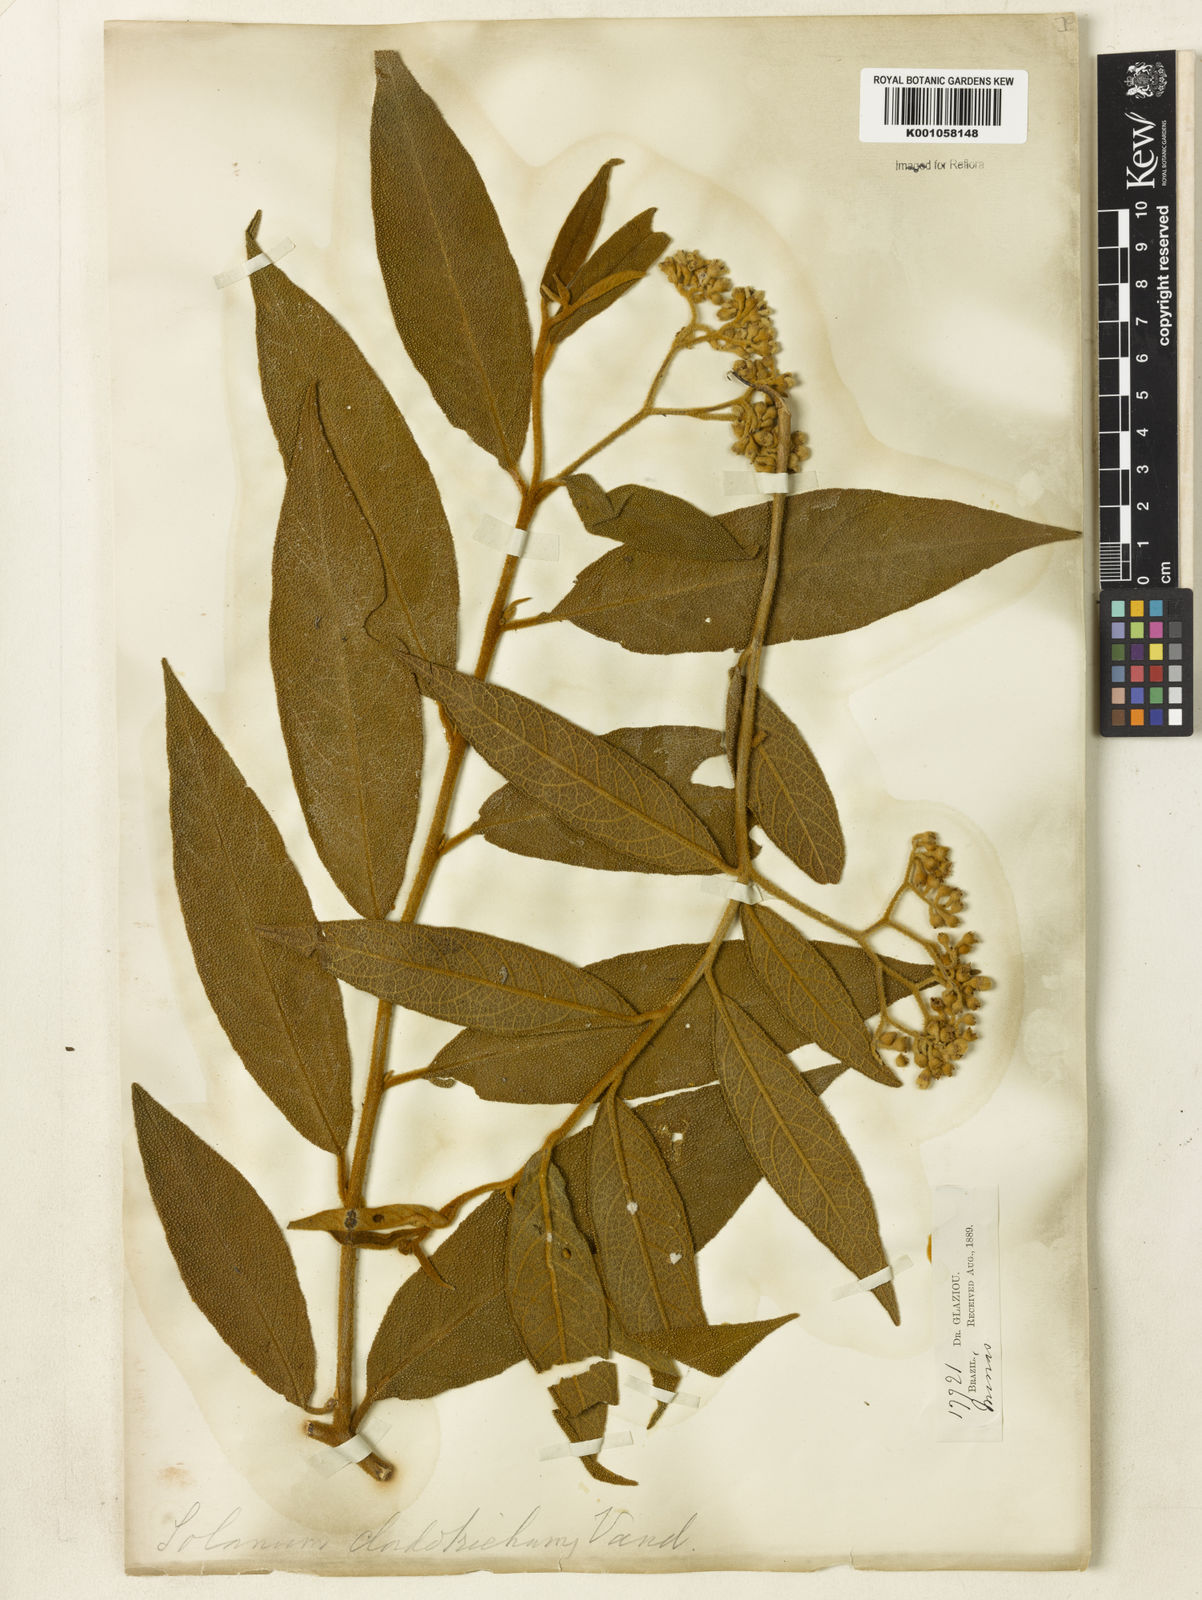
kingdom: Plantae
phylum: Tracheophyta
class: Magnoliopsida
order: Solanales
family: Solanaceae
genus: Solanum
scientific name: Solanum jussiaei
